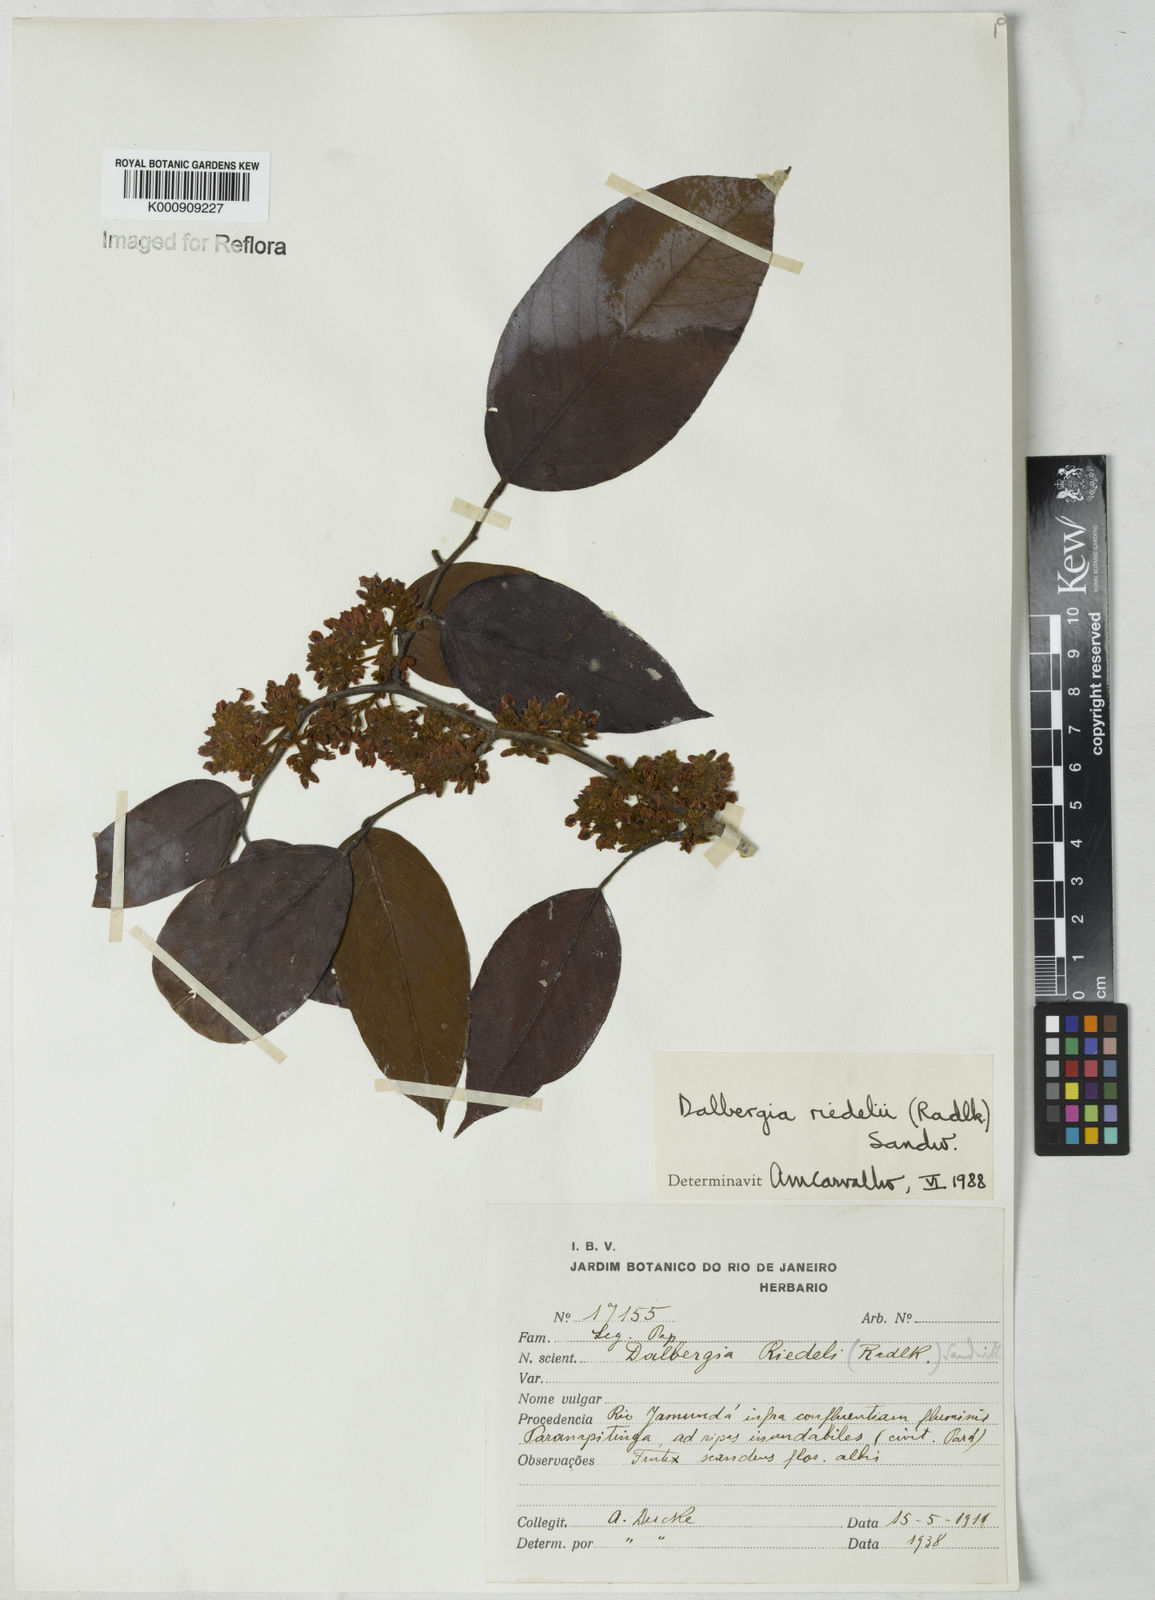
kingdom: Plantae
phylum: Tracheophyta
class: Magnoliopsida
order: Fabales
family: Fabaceae
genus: Dalbergia
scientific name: Dalbergia riedelii
